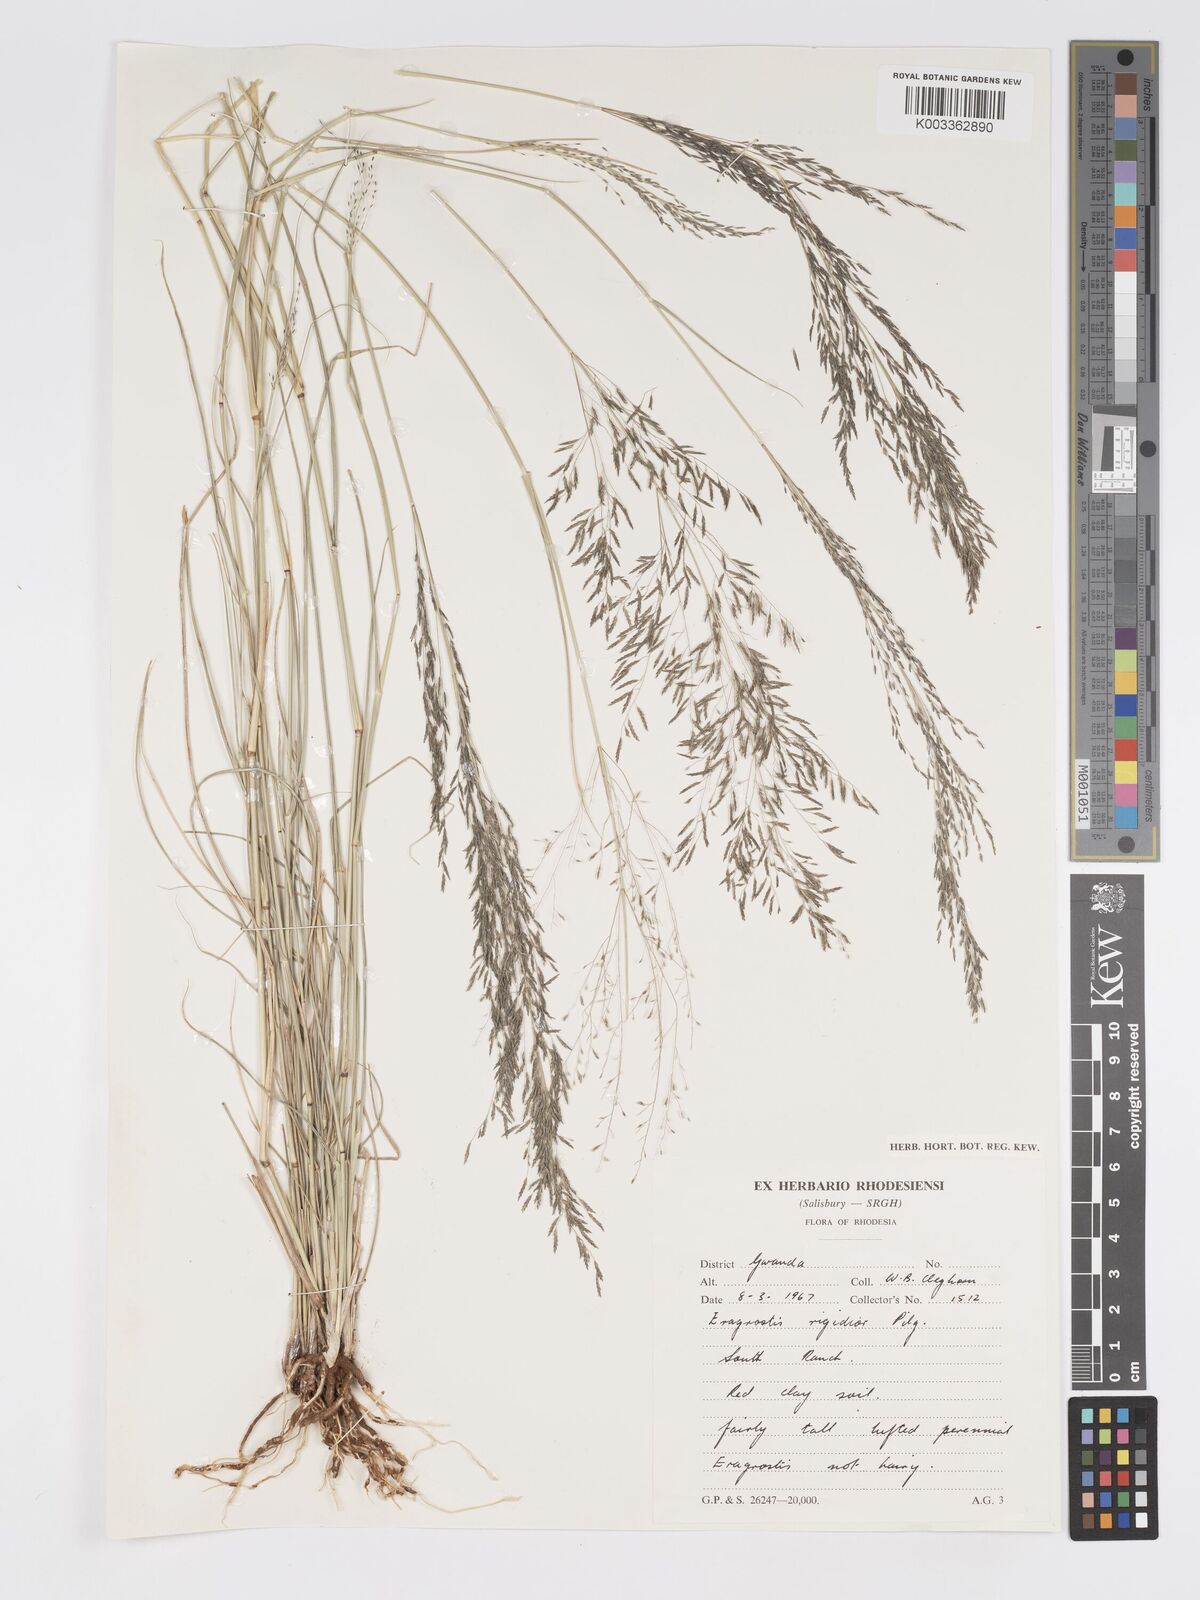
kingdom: Plantae
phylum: Tracheophyta
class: Liliopsida
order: Poales
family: Poaceae
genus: Eragrostis
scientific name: Eragrostis cylindriflora
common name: Cylinderflower lovegrass
